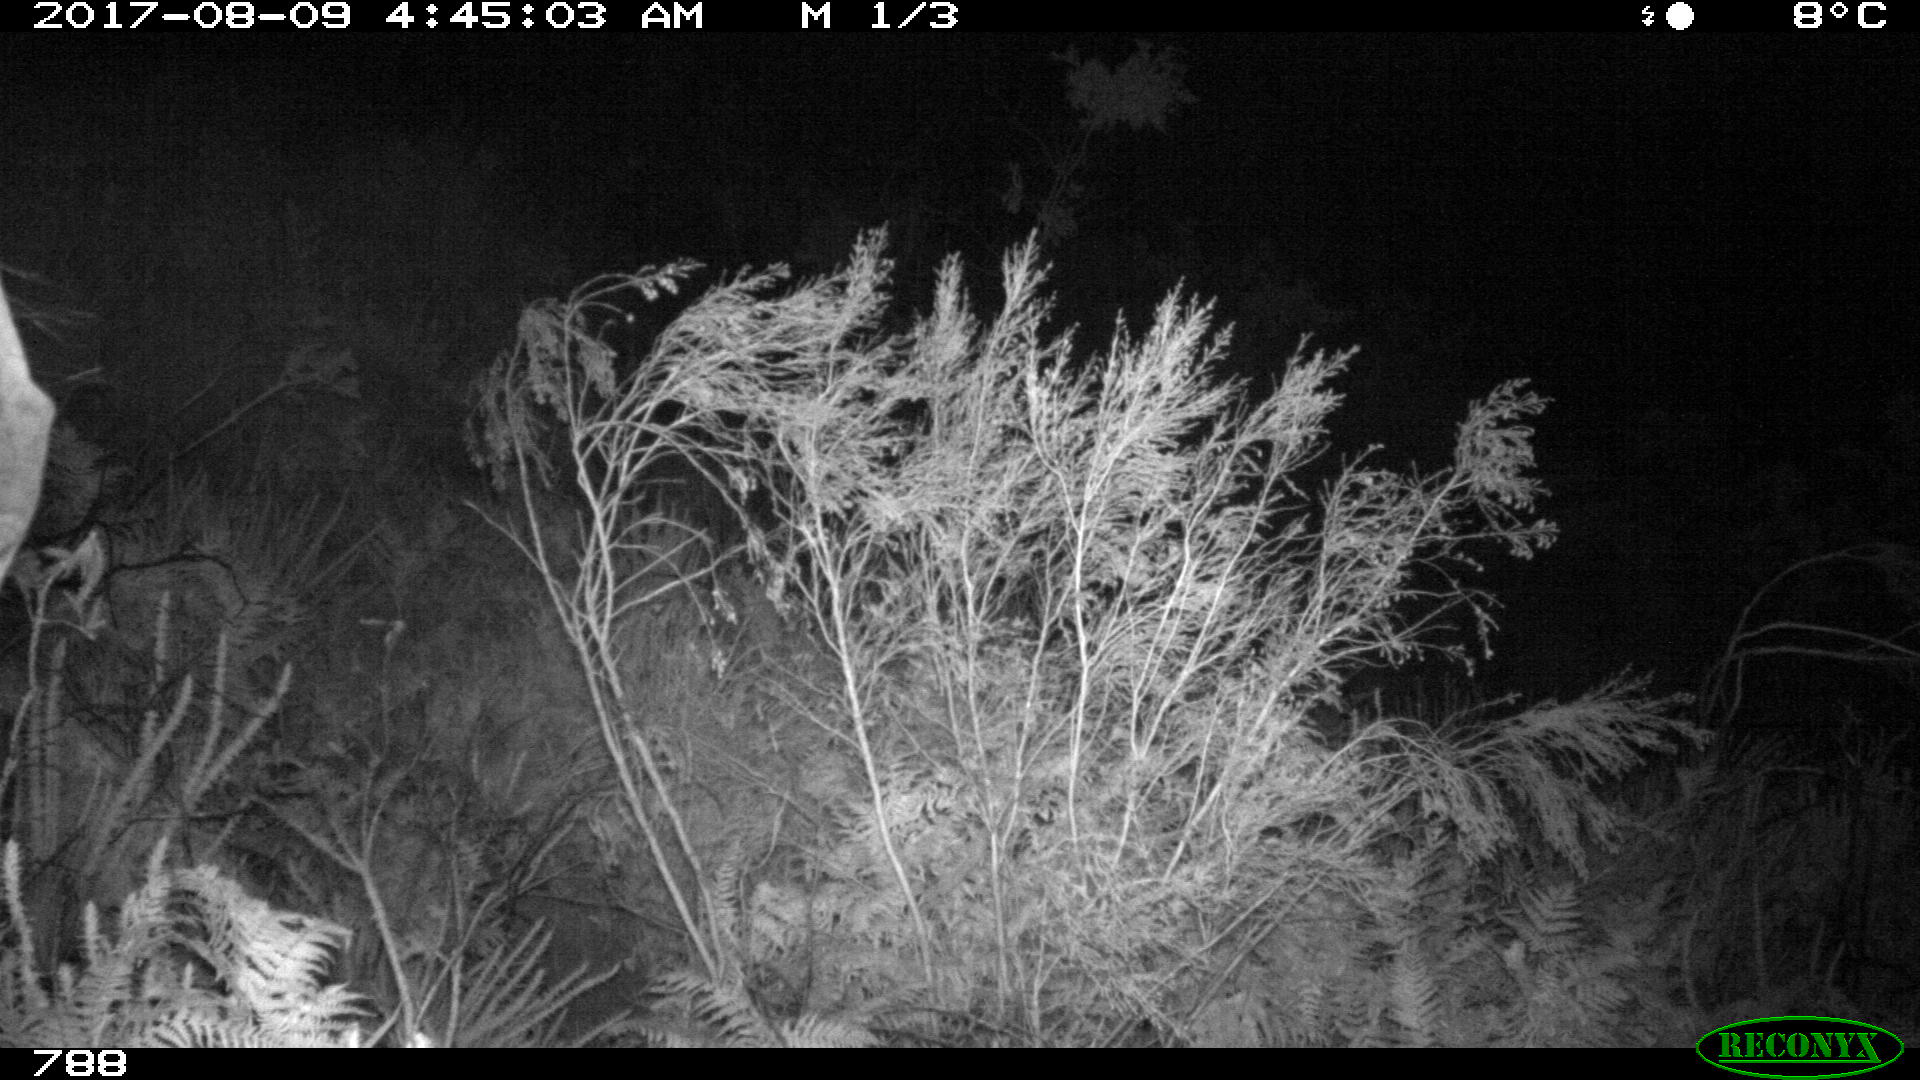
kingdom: Animalia
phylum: Chordata
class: Mammalia
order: Perissodactyla
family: Equidae
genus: Equus
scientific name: Equus caballus
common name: Horse
